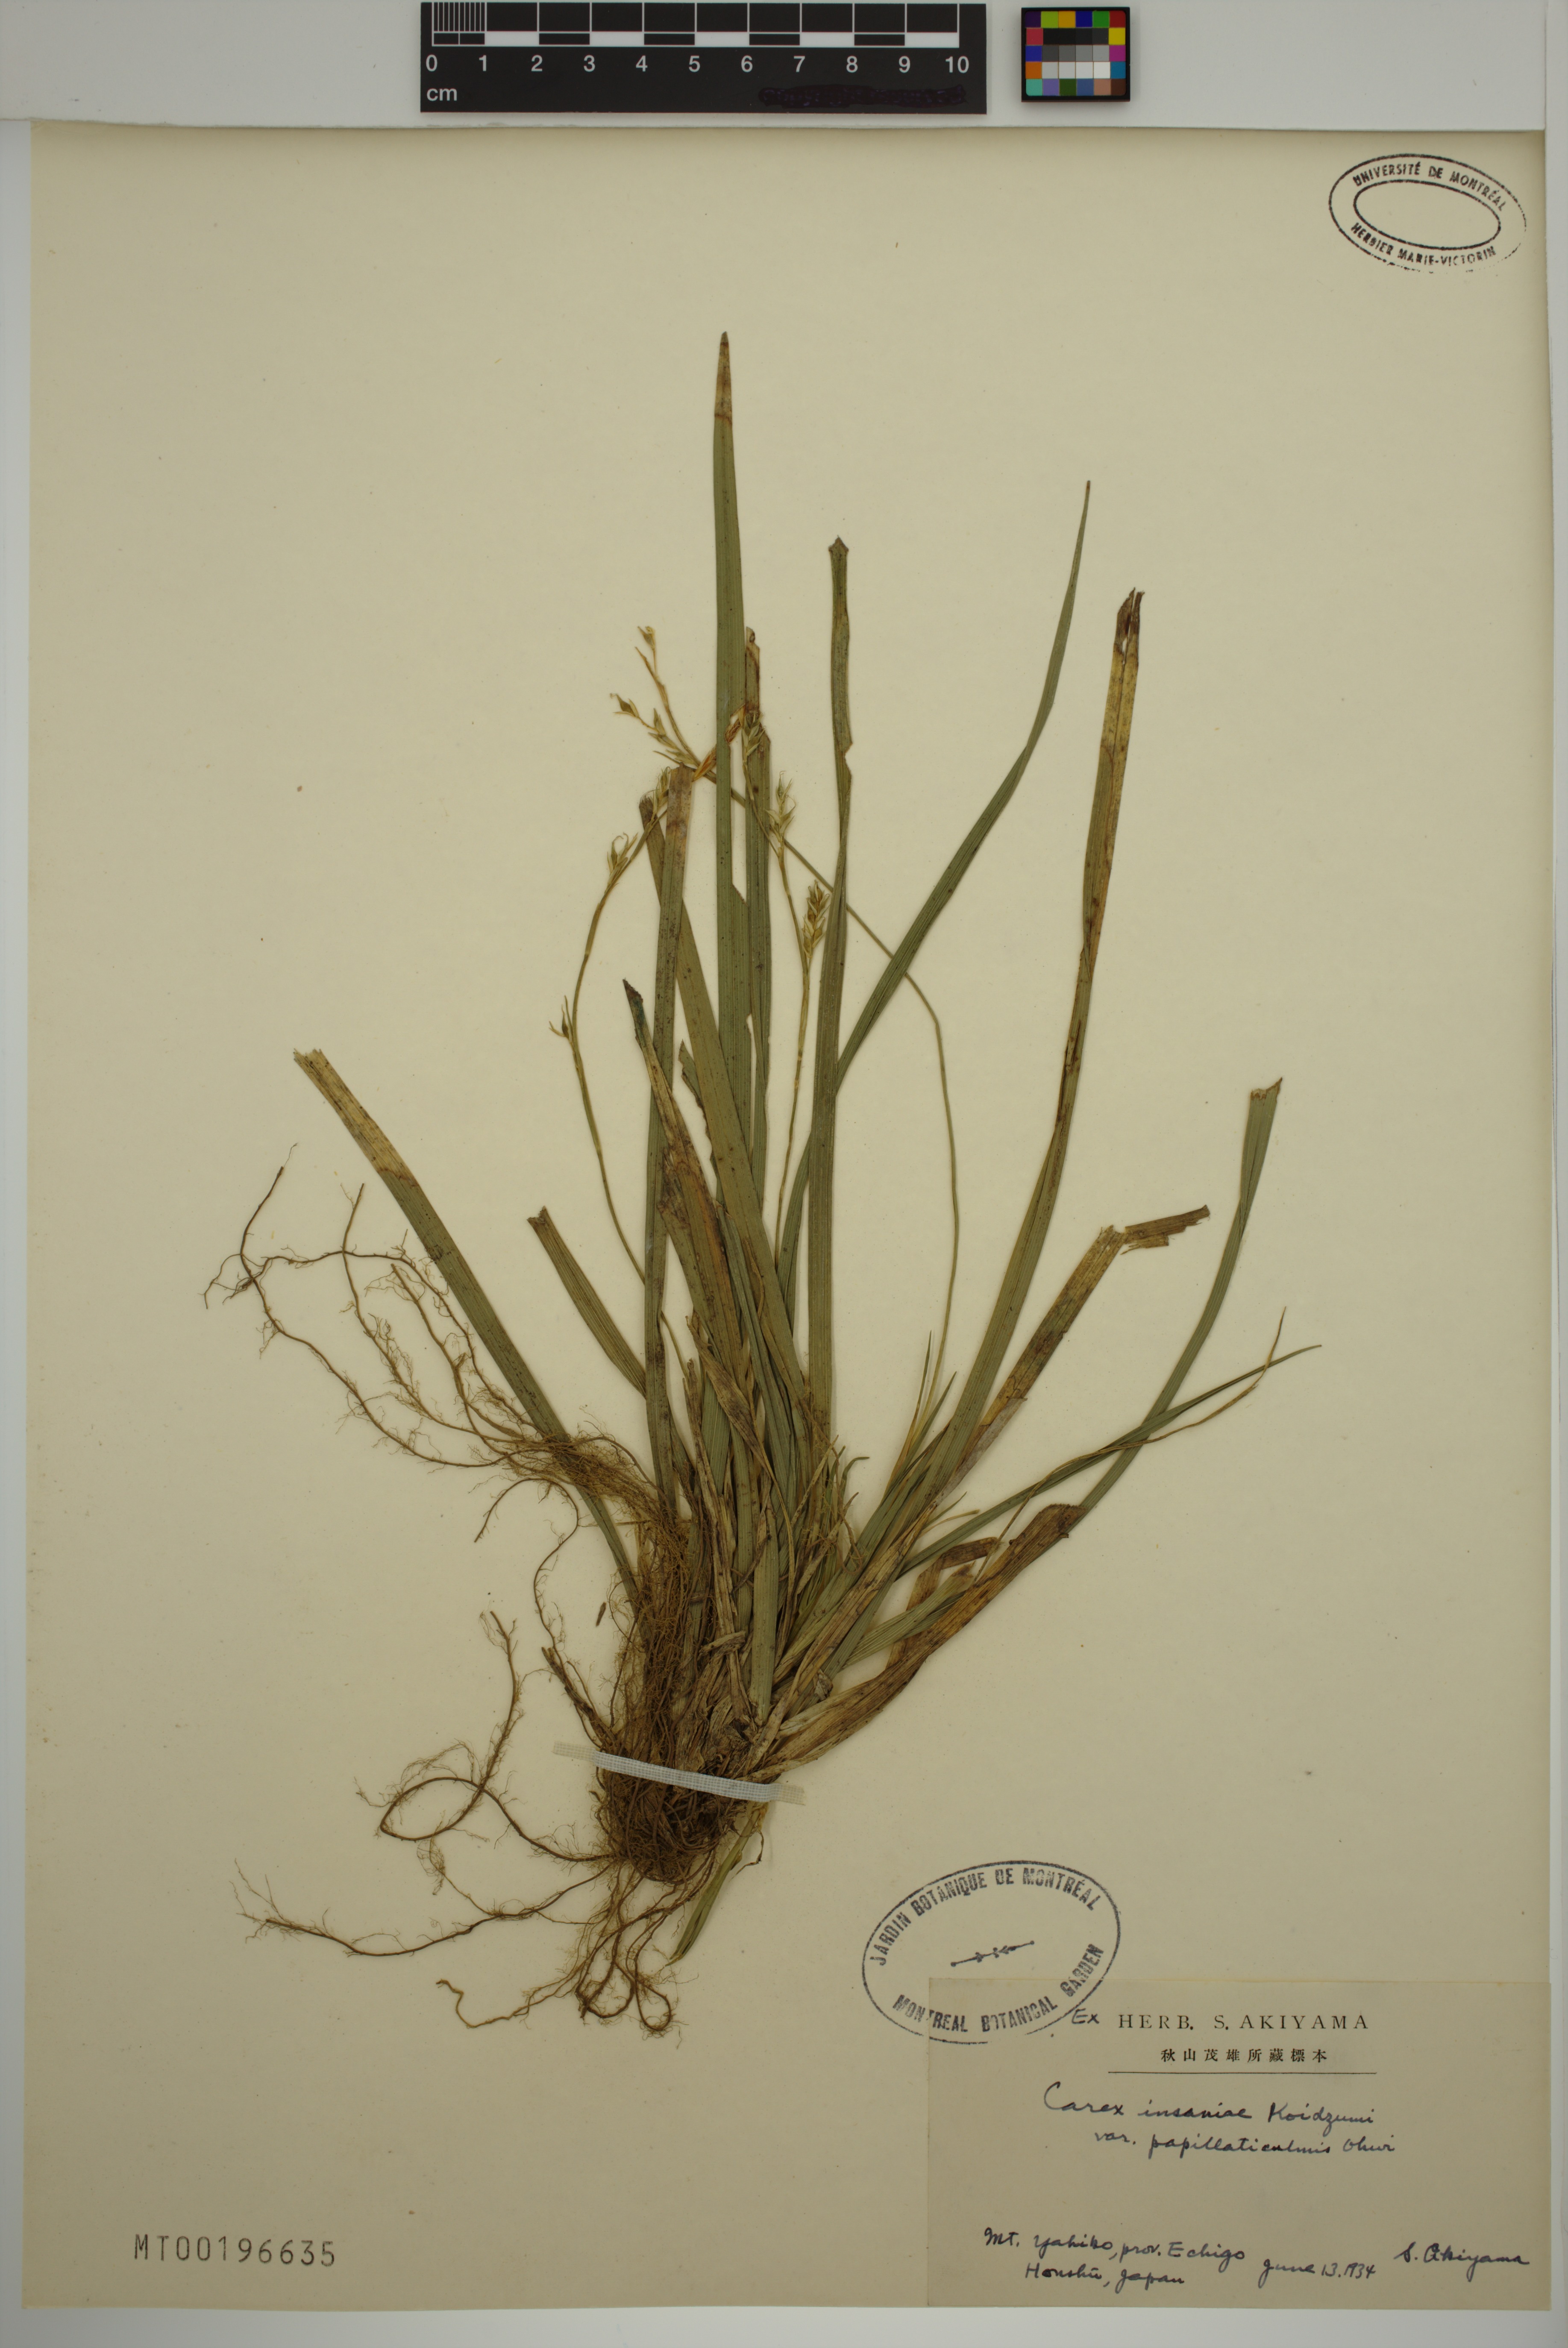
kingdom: Plantae
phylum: Tracheophyta
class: Liliopsida
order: Poales
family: Cyperaceae
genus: Carex
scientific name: Carex insaniae
